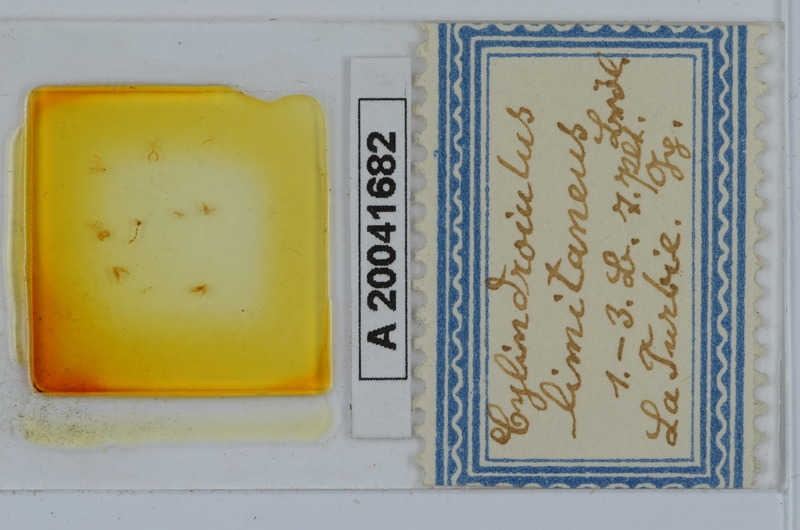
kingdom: Animalia
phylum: Arthropoda
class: Diplopoda
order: Julida
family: Julidae
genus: Cylindroiulus
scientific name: Cylindroiulus limitaneus
